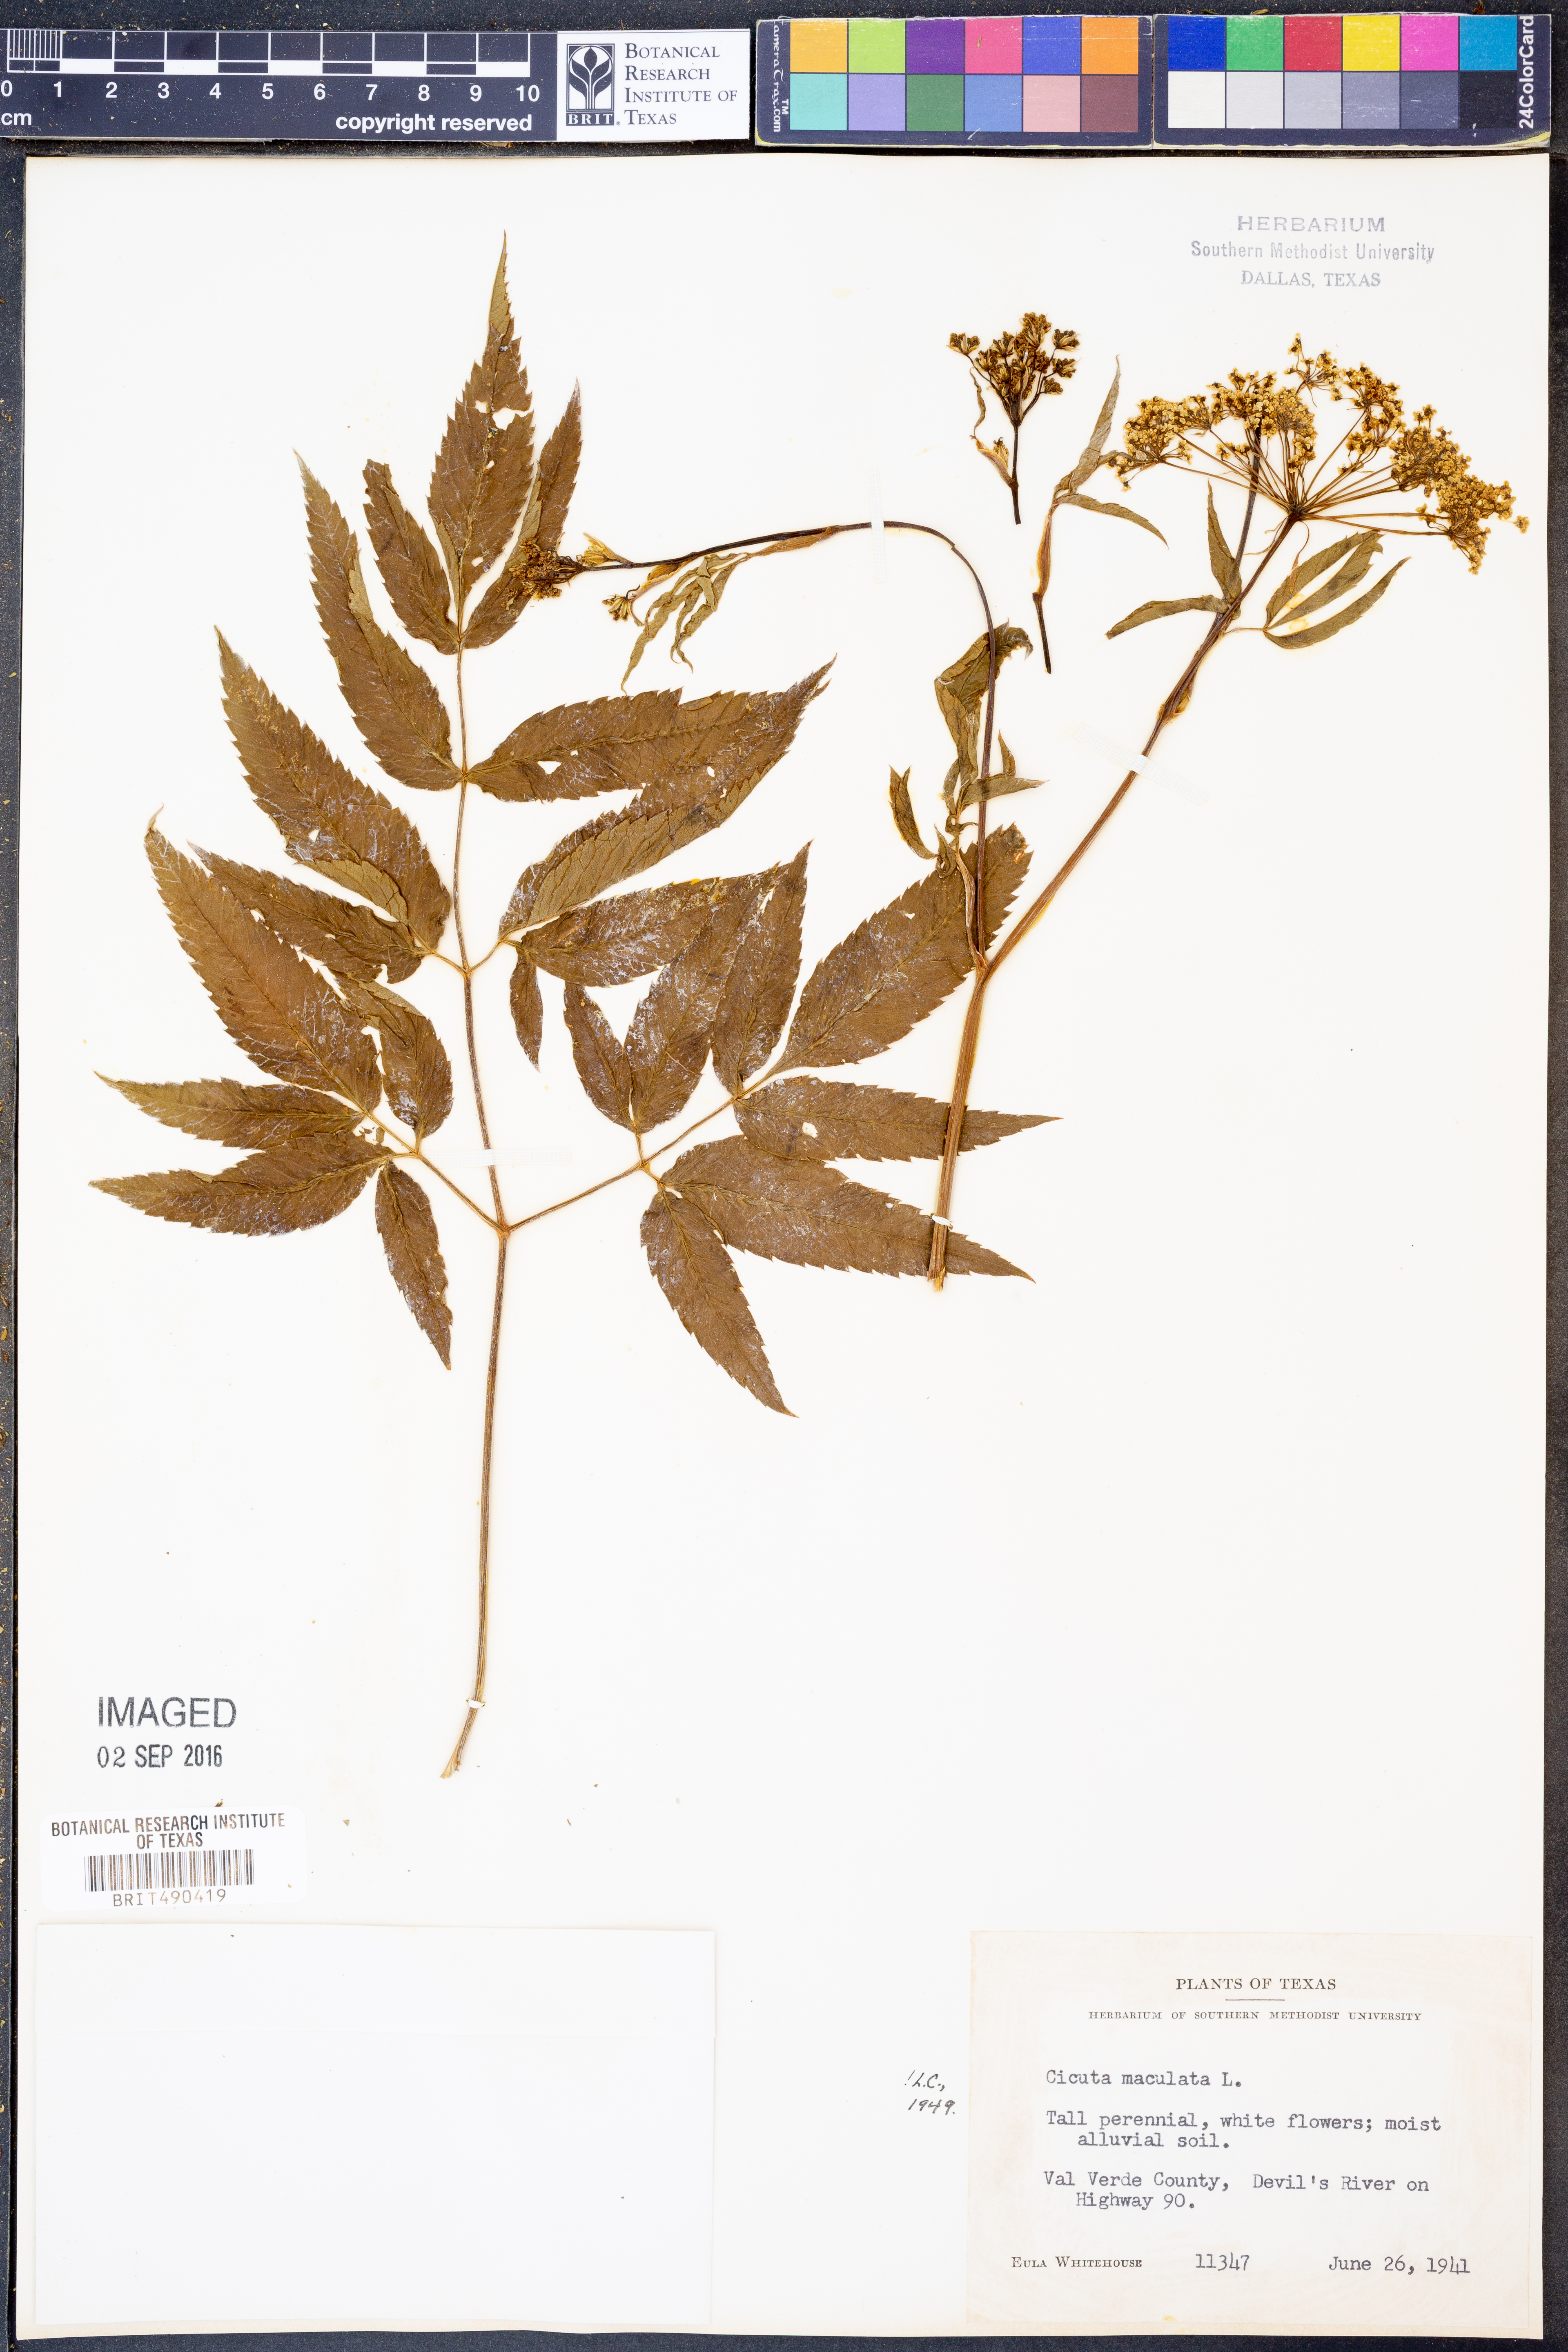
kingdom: Plantae
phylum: Tracheophyta
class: Magnoliopsida
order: Apiales
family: Apiaceae
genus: Cicuta
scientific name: Cicuta maculata
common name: Spotted cowbane
